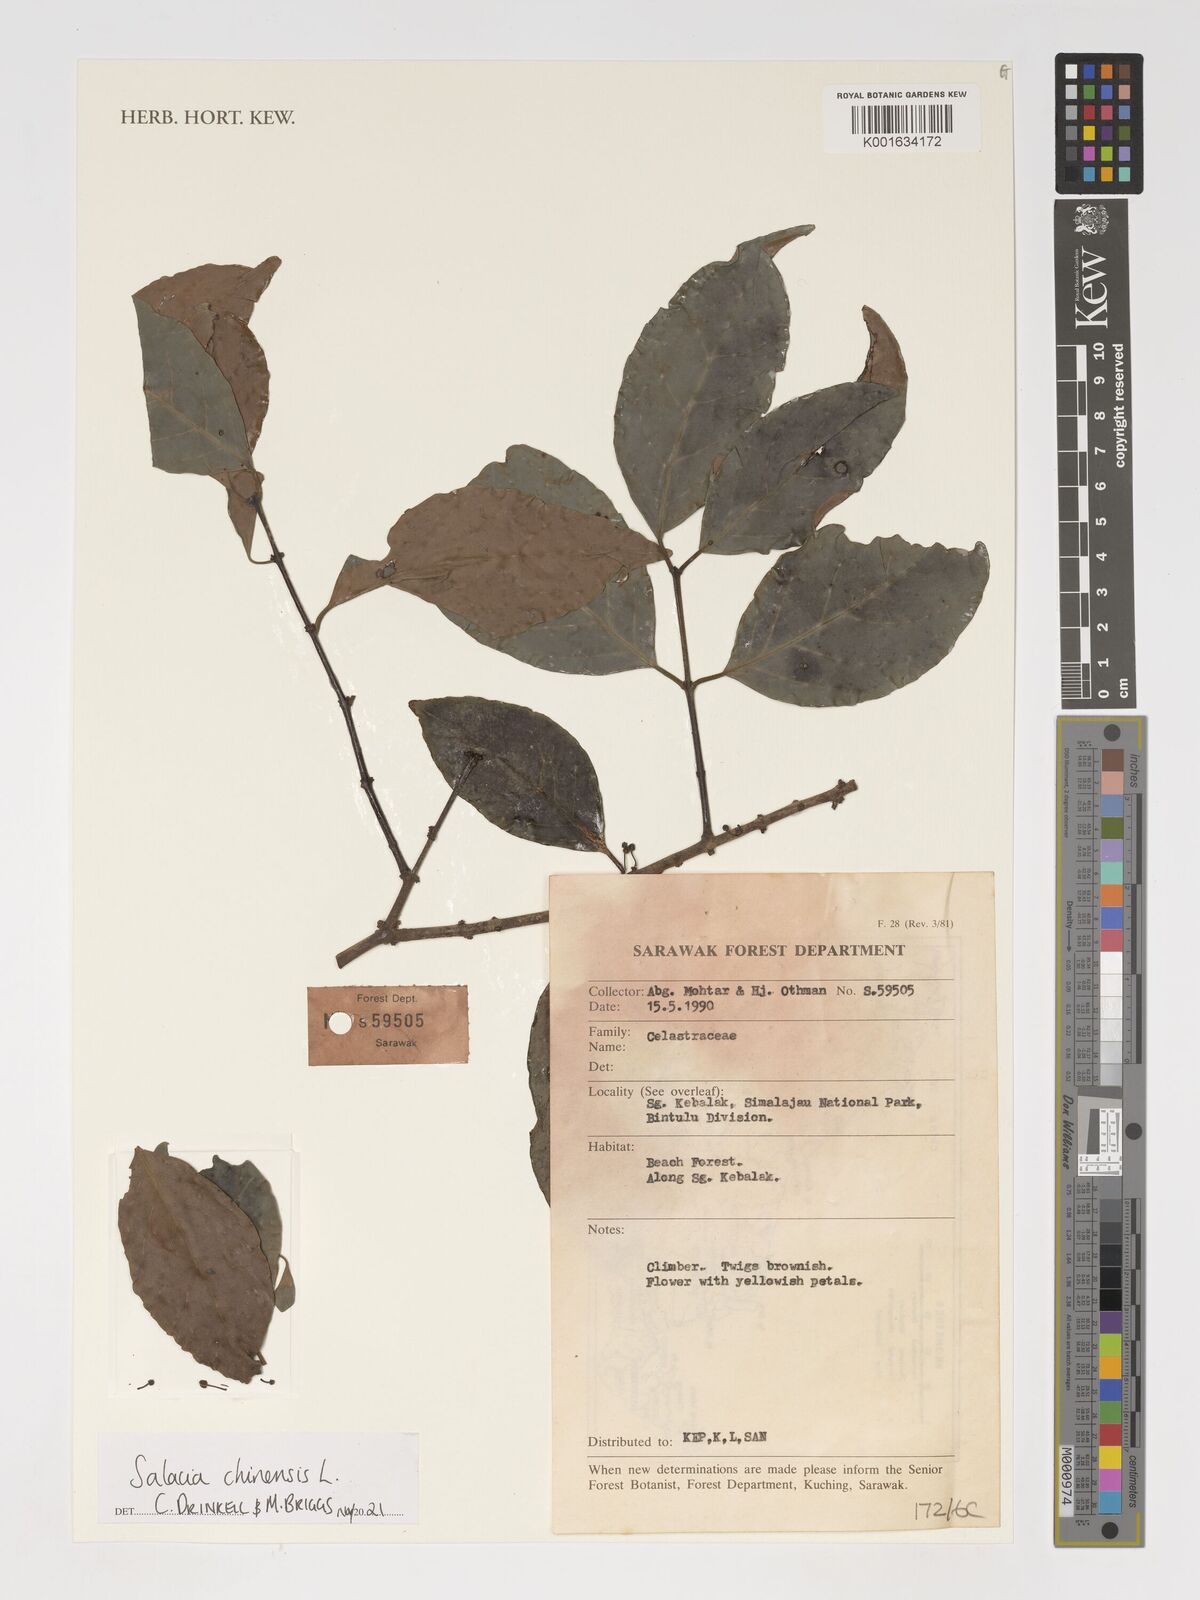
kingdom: Plantae
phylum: Tracheophyta
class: Magnoliopsida
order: Celastrales
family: Celastraceae
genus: Salacia
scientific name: Salacia chinensis
